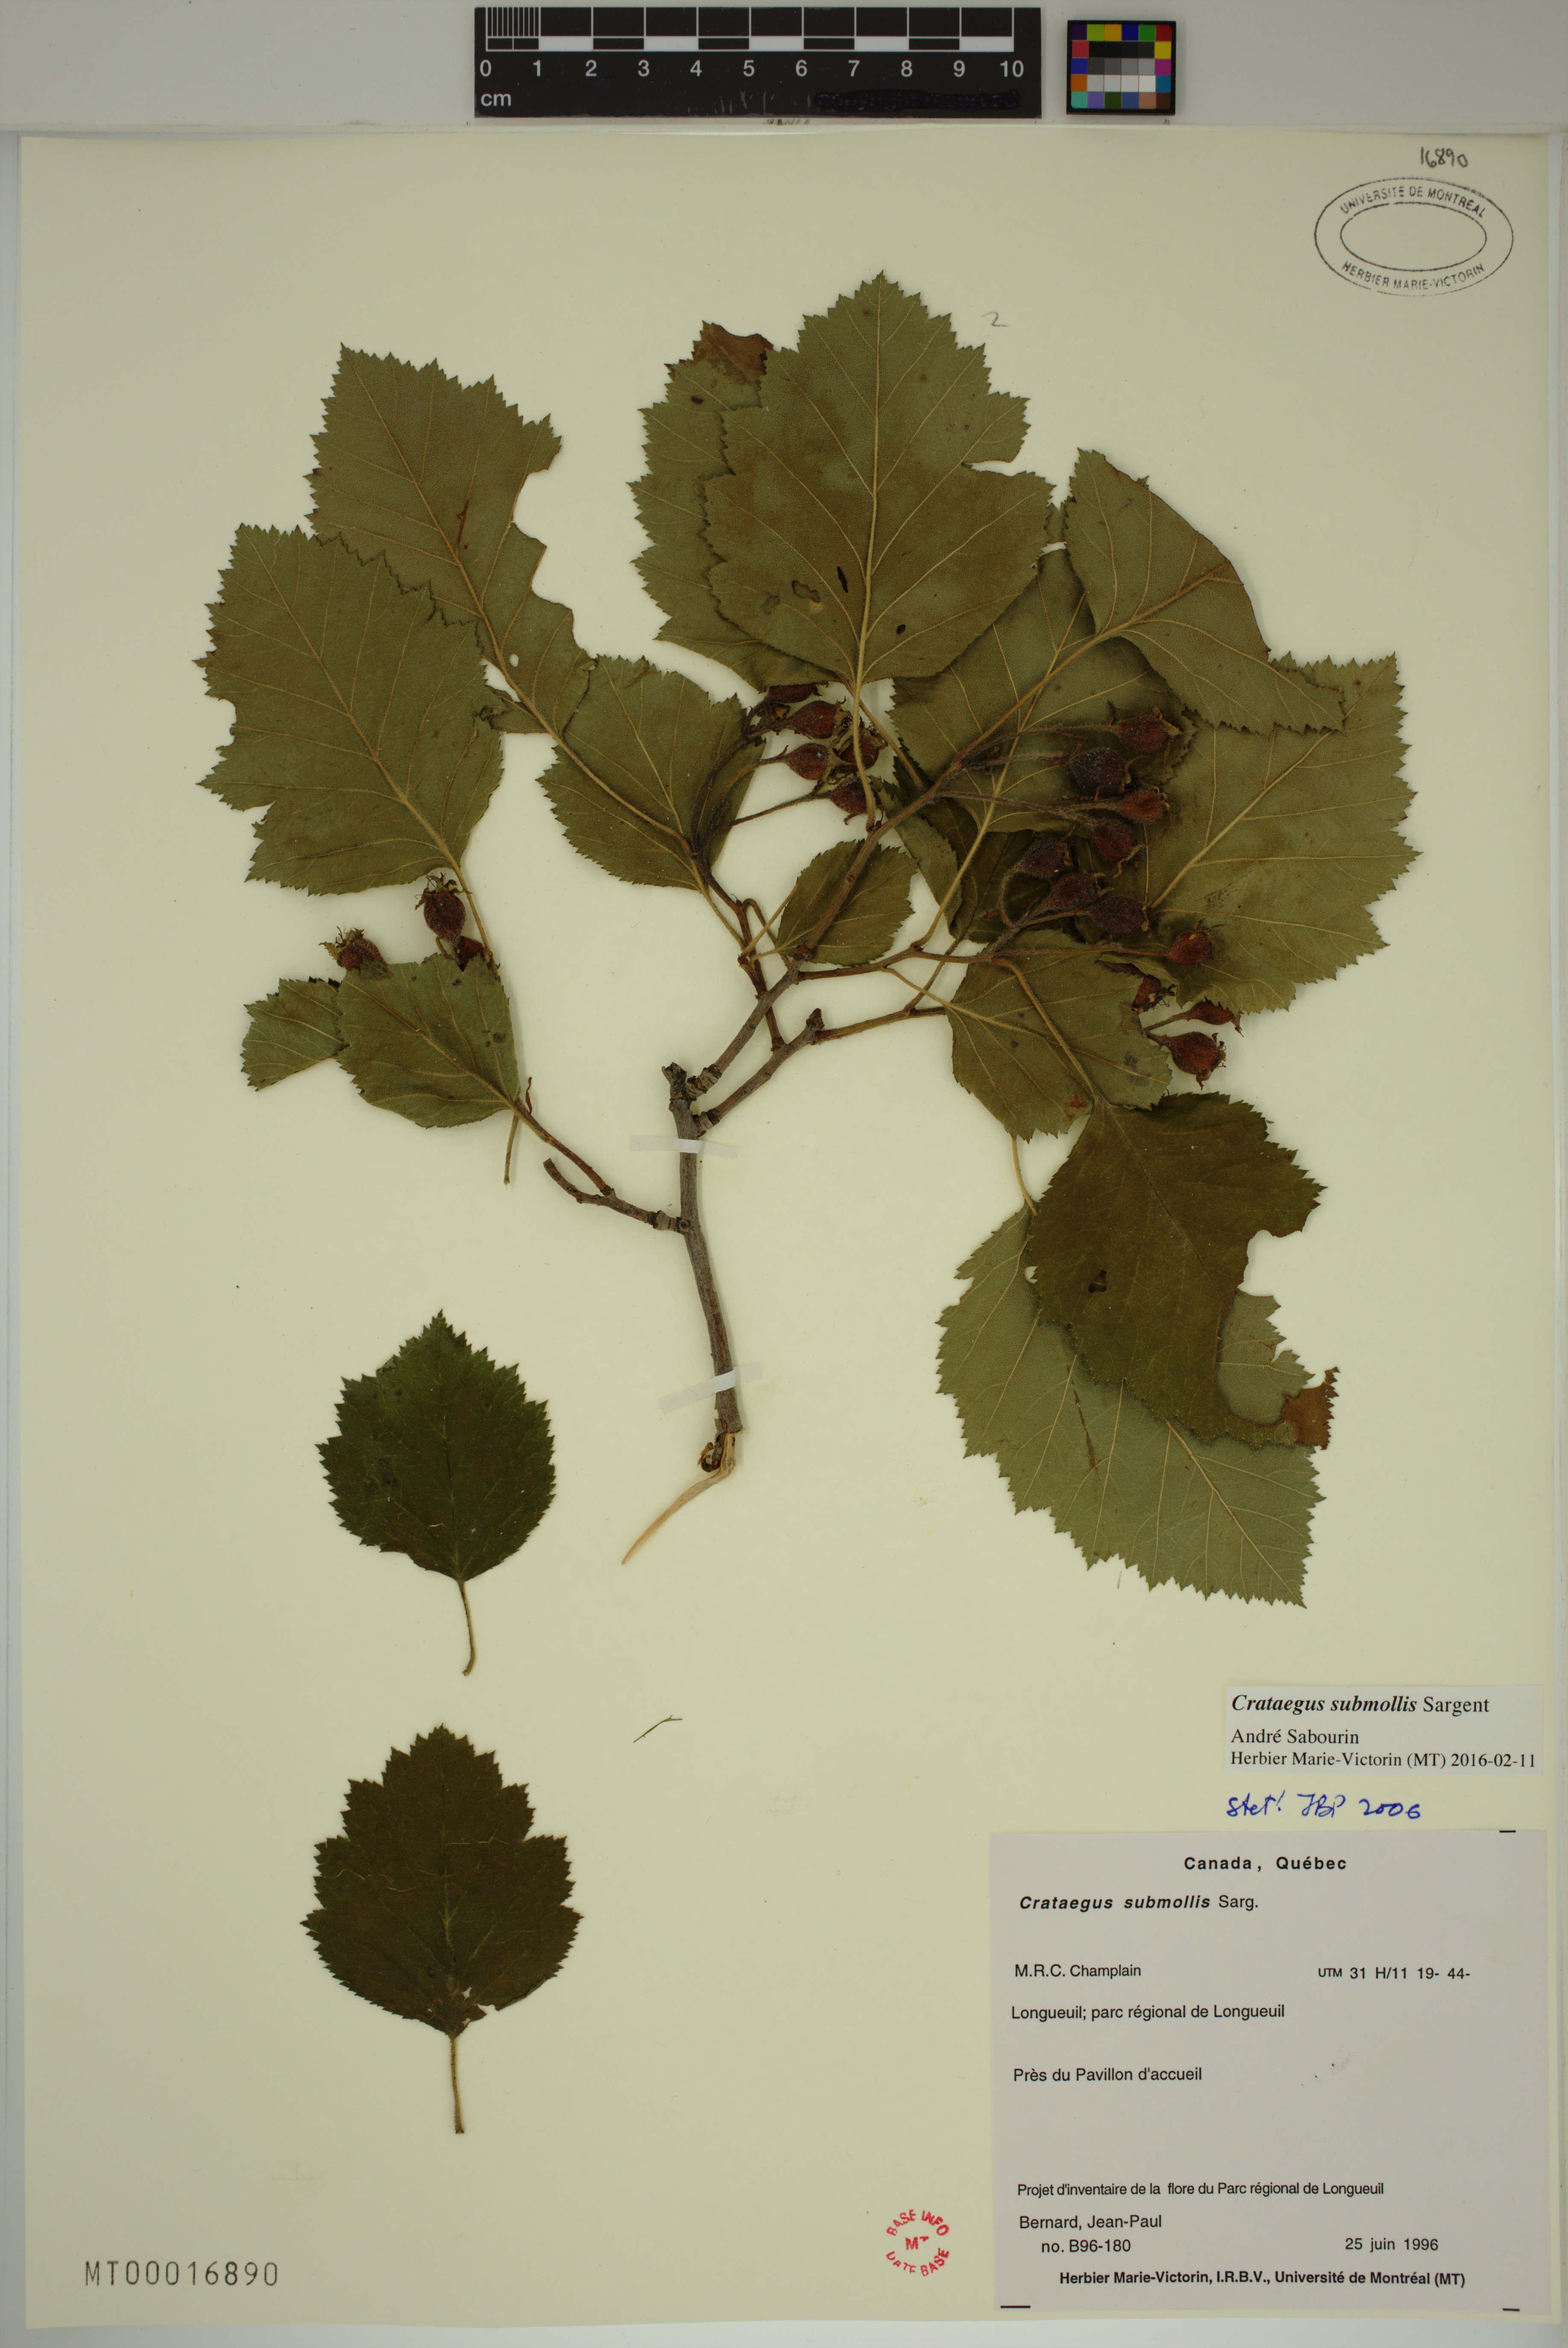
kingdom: Plantae
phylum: Tracheophyta
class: Magnoliopsida
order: Rosales
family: Rosaceae
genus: Crataegus
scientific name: Crataegus submollis
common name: Hairy cockspurthorn
